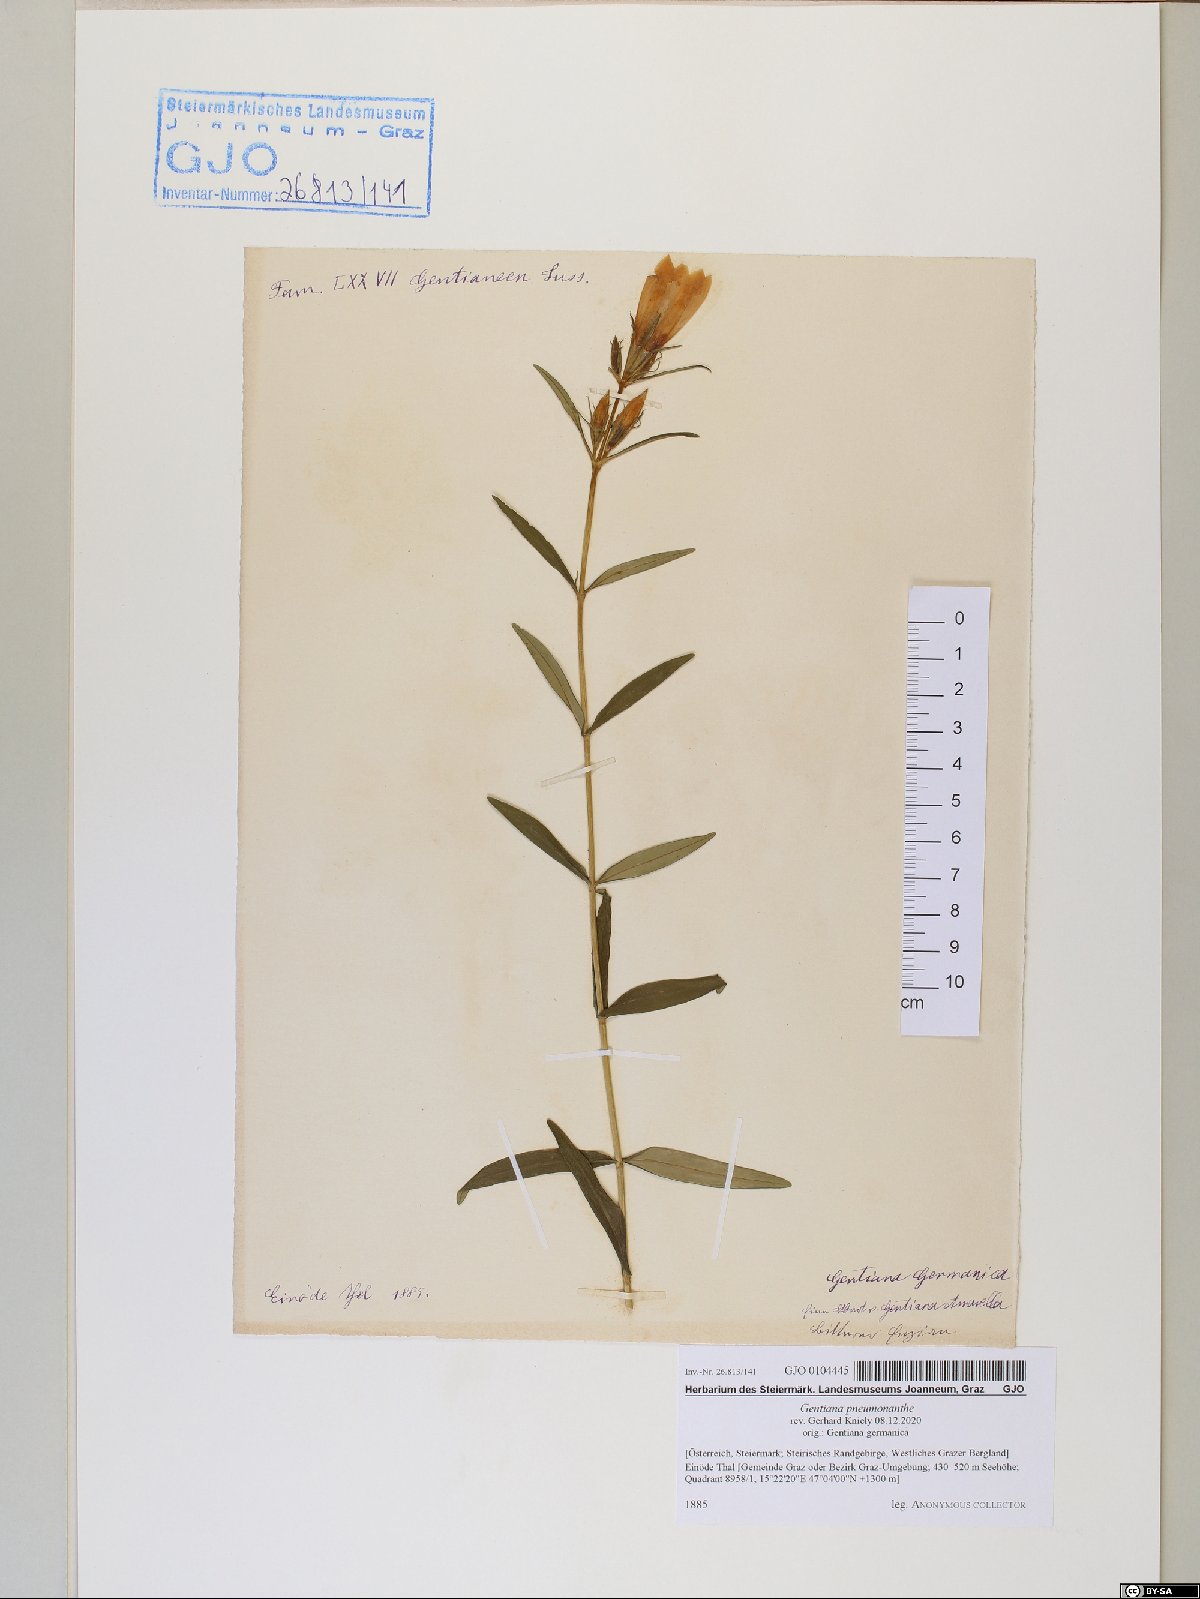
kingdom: Plantae
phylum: Tracheophyta
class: Magnoliopsida
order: Gentianales
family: Gentianaceae
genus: Gentiana
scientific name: Gentiana pneumonanthe
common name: Marsh gentian
